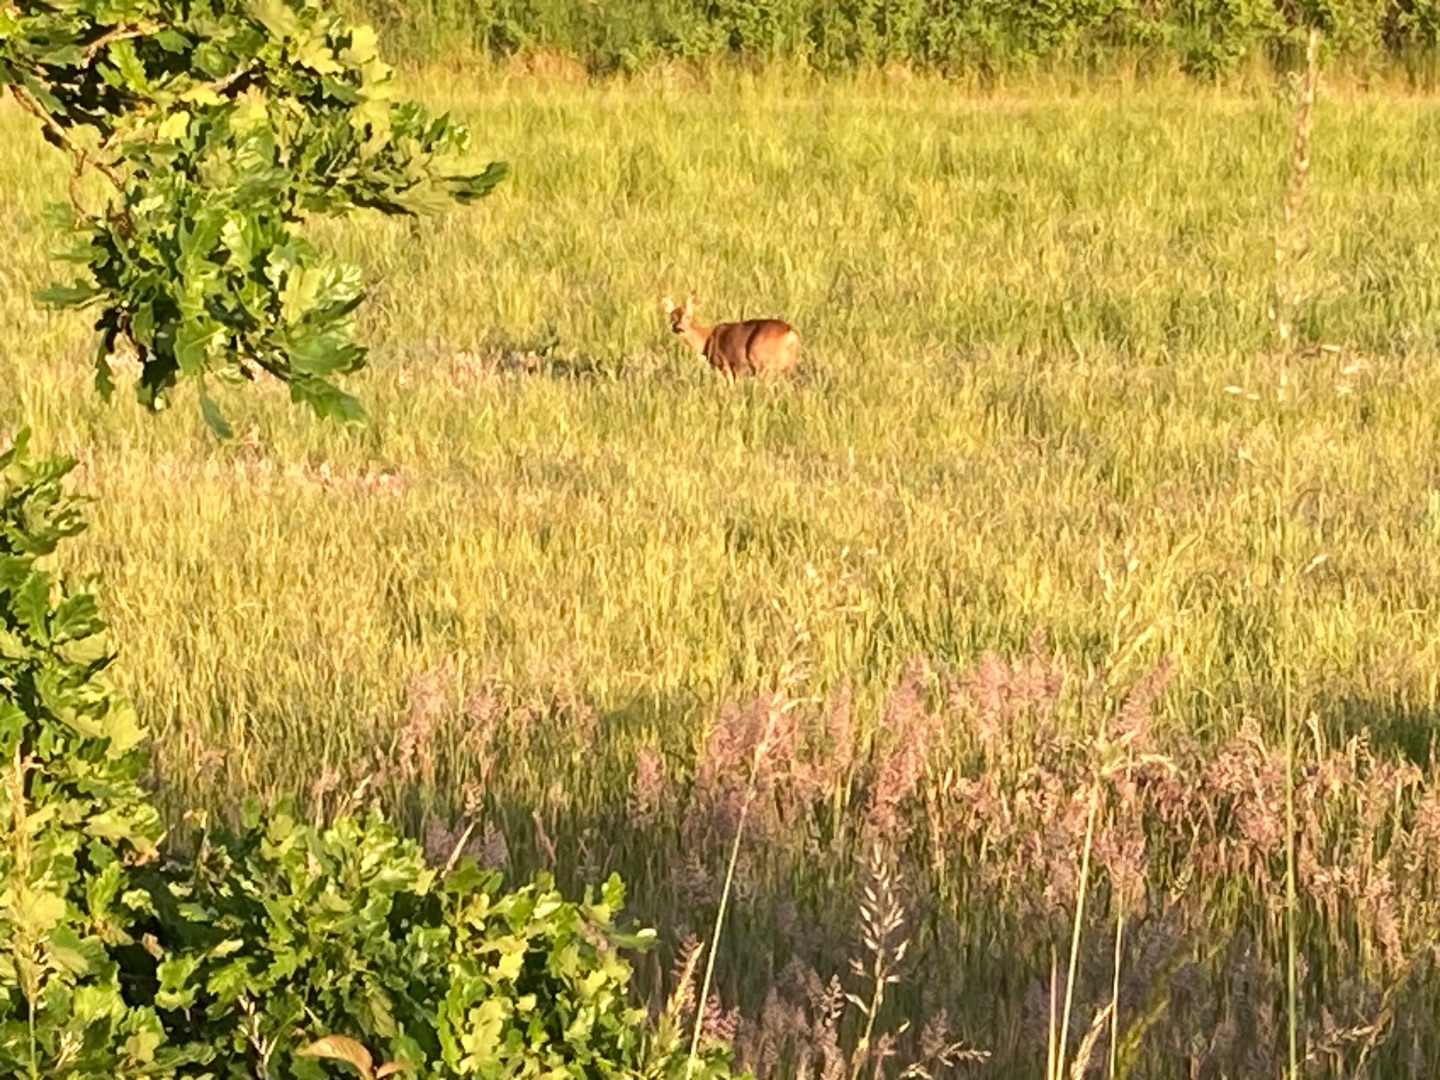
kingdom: Animalia
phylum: Chordata
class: Mammalia
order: Artiodactyla
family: Cervidae
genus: Capreolus
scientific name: Capreolus capreolus
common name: Rådyr
